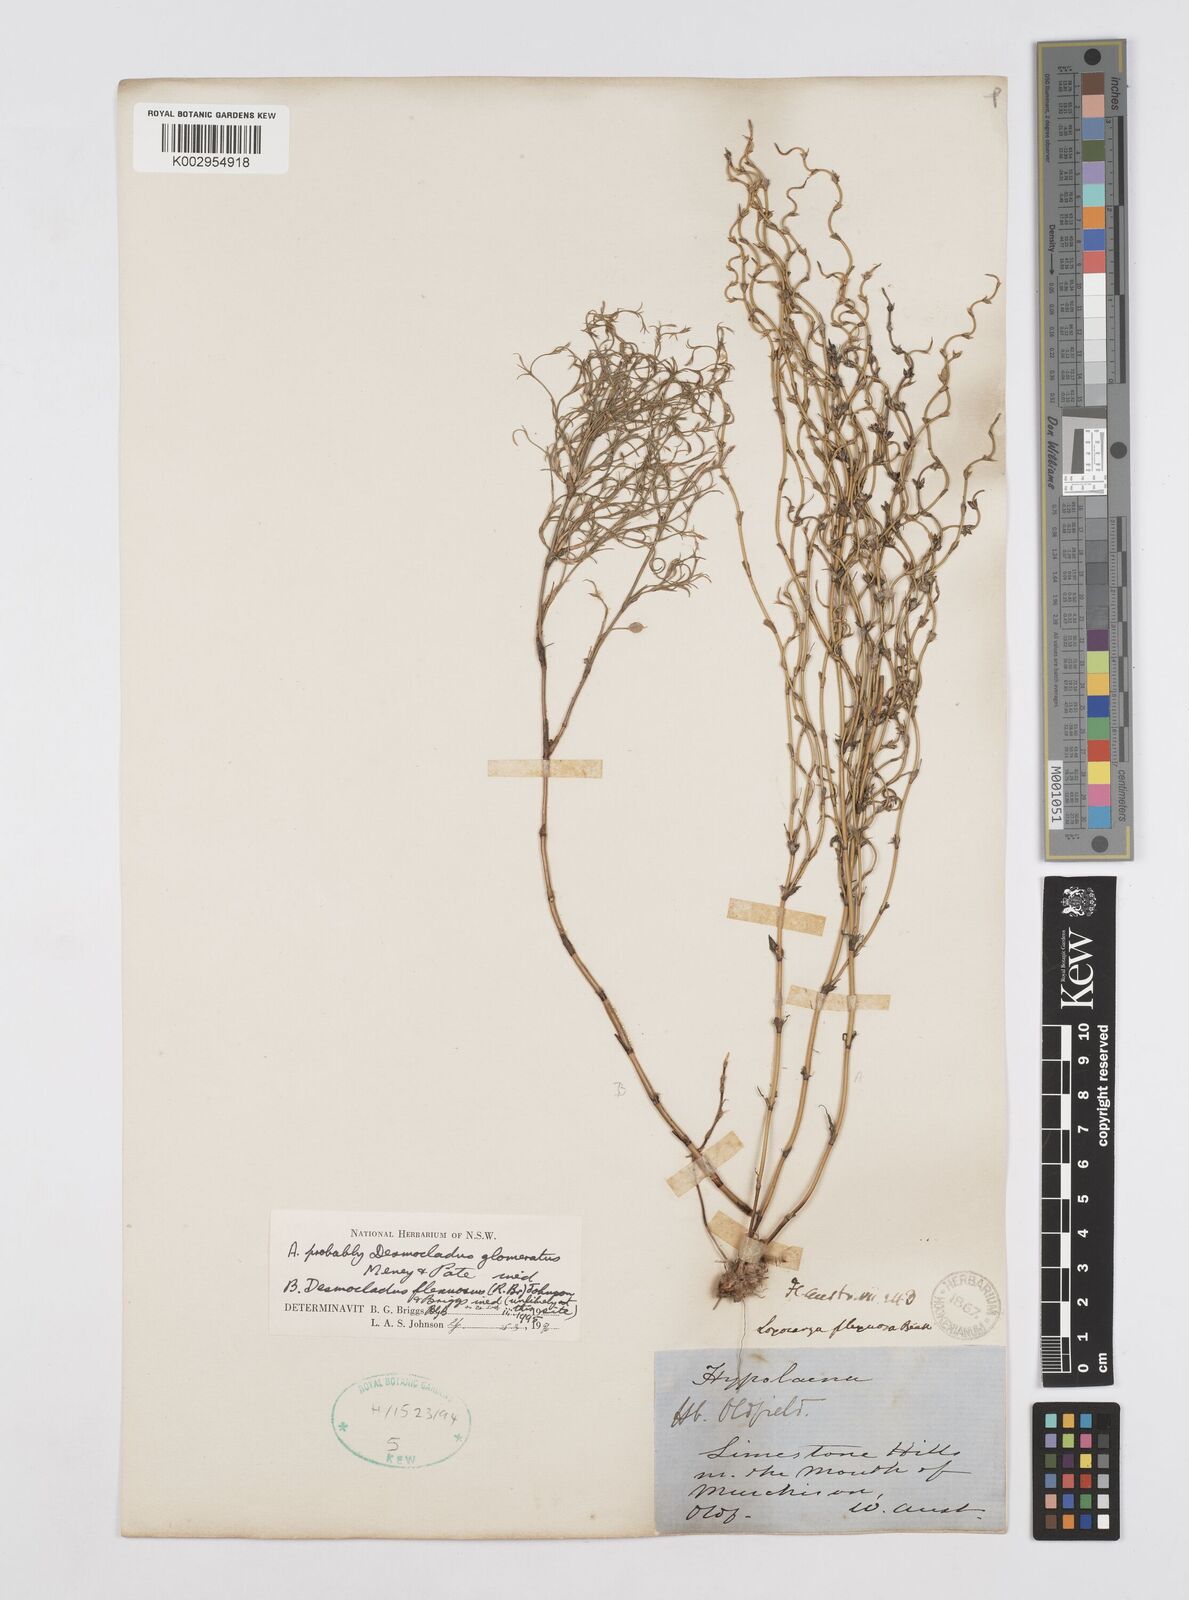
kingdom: Plantae
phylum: Tracheophyta
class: Liliopsida
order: Poales
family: Restionaceae
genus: Desmocladus
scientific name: Desmocladus flexuosus
